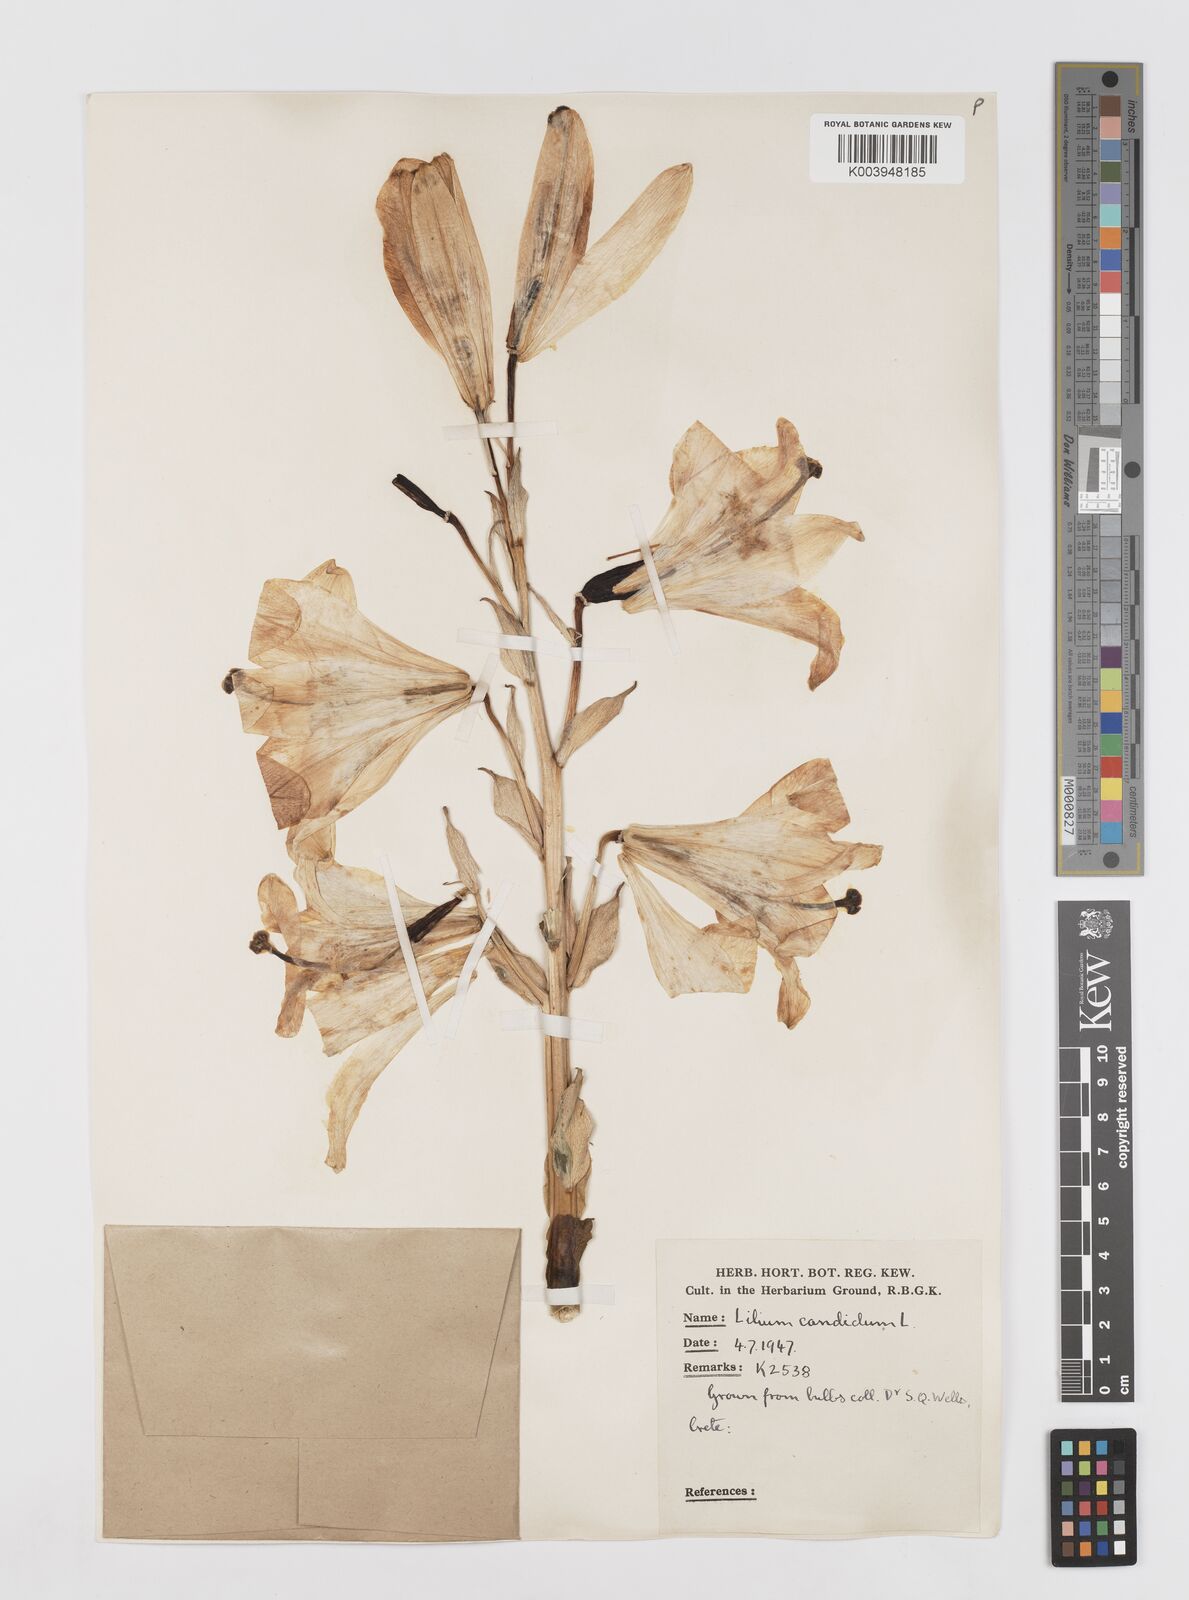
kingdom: Plantae
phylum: Tracheophyta
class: Liliopsida
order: Liliales
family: Liliaceae
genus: Lilium
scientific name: Lilium candidum
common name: Madonna lily
